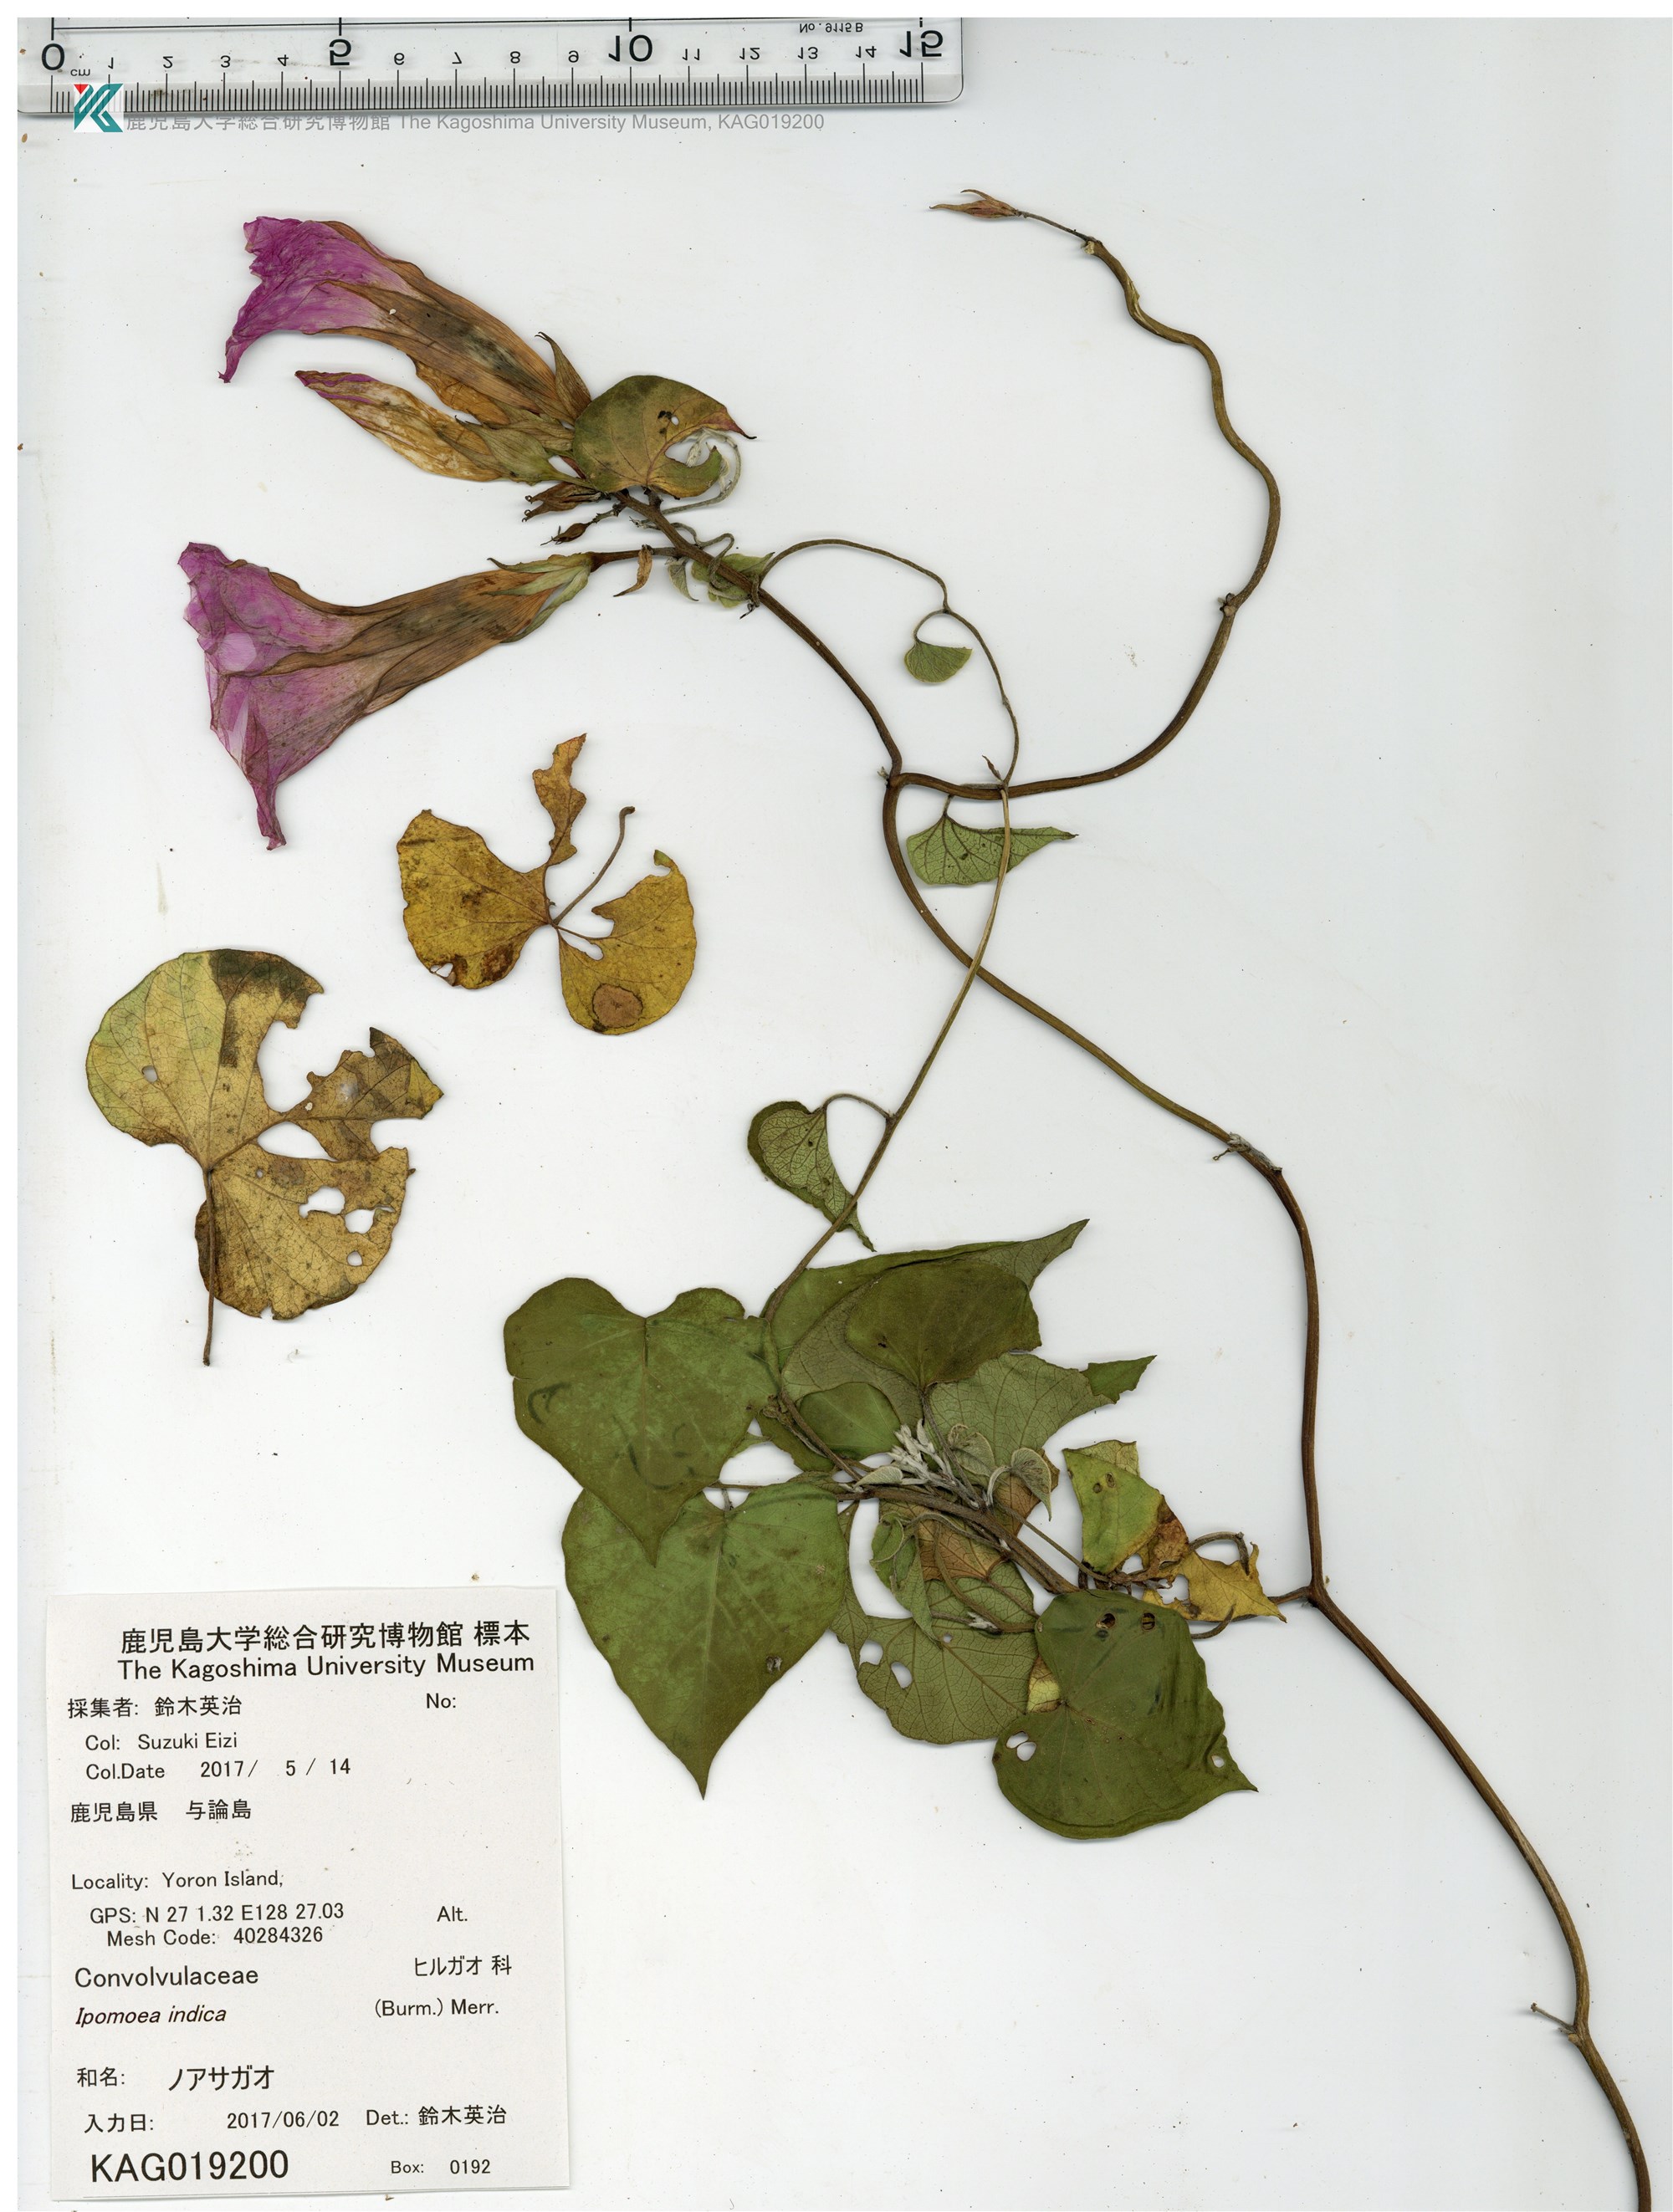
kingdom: Plantae
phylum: Tracheophyta
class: Magnoliopsida
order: Solanales
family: Convolvulaceae
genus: Ipomoea
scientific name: Ipomoea indica
